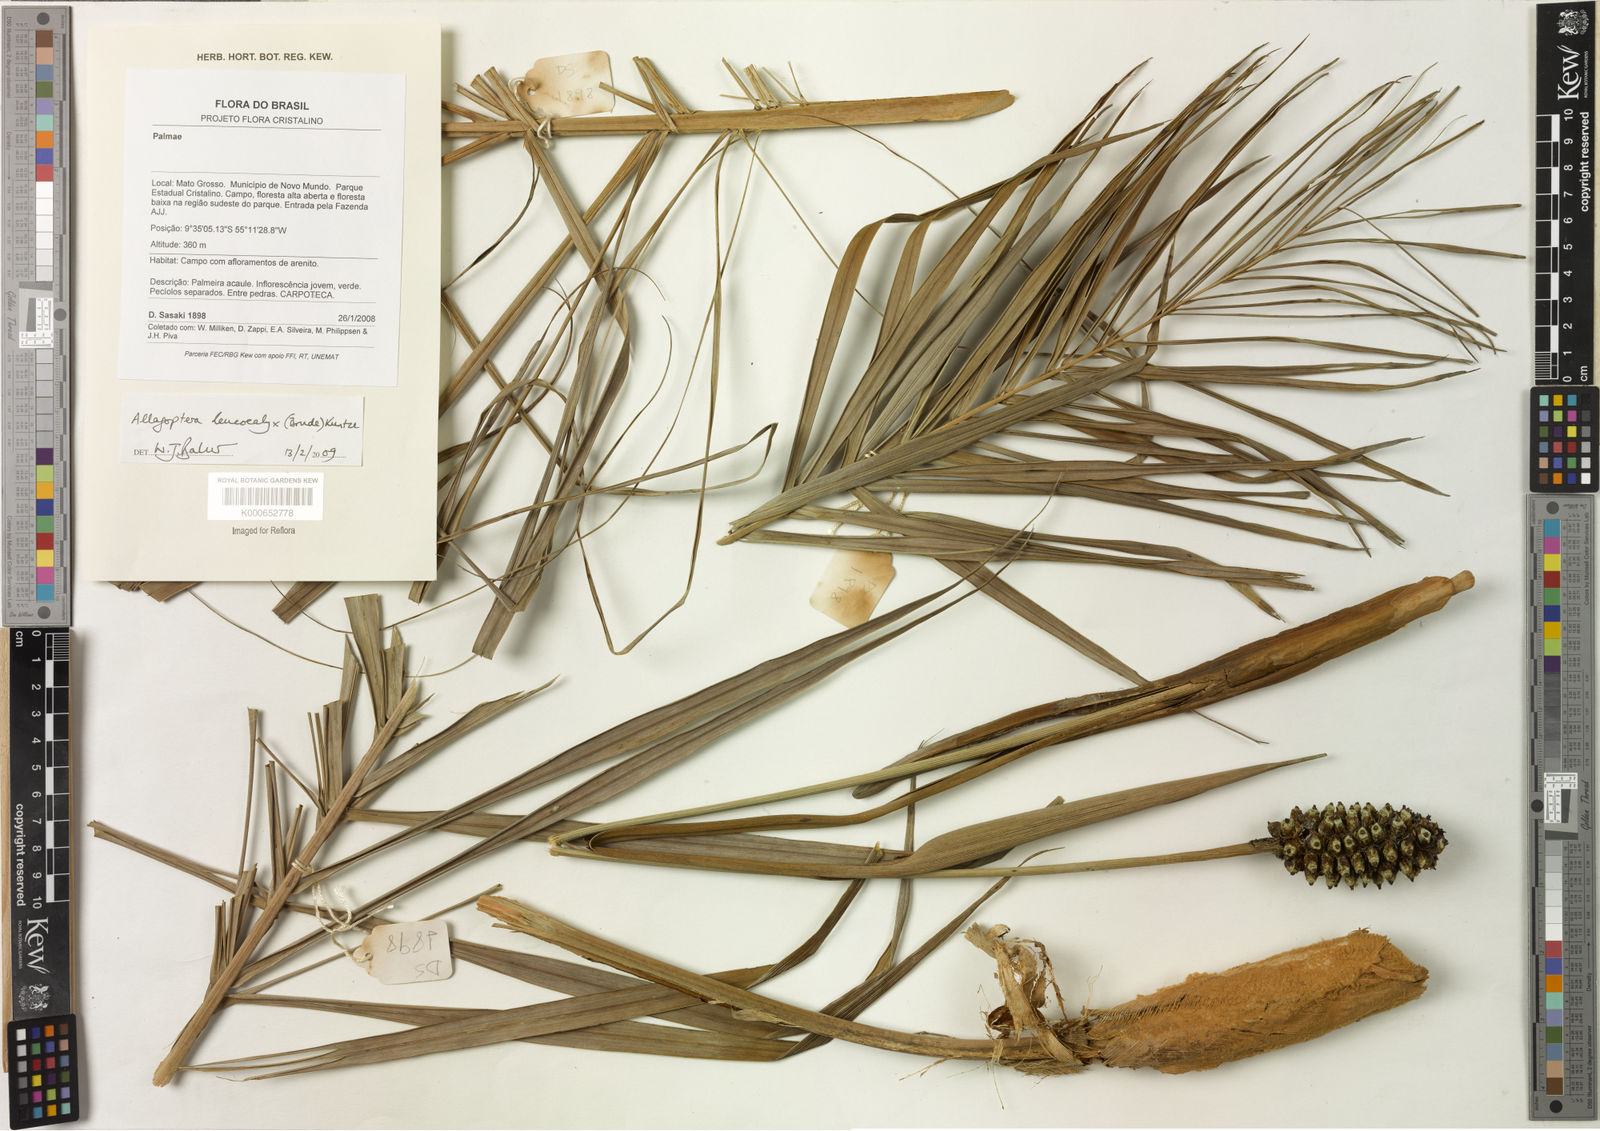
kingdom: Plantae
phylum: Tracheophyta
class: Liliopsida
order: Arecales
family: Arecaceae
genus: Allagoptera
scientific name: Allagoptera leucocalyx
